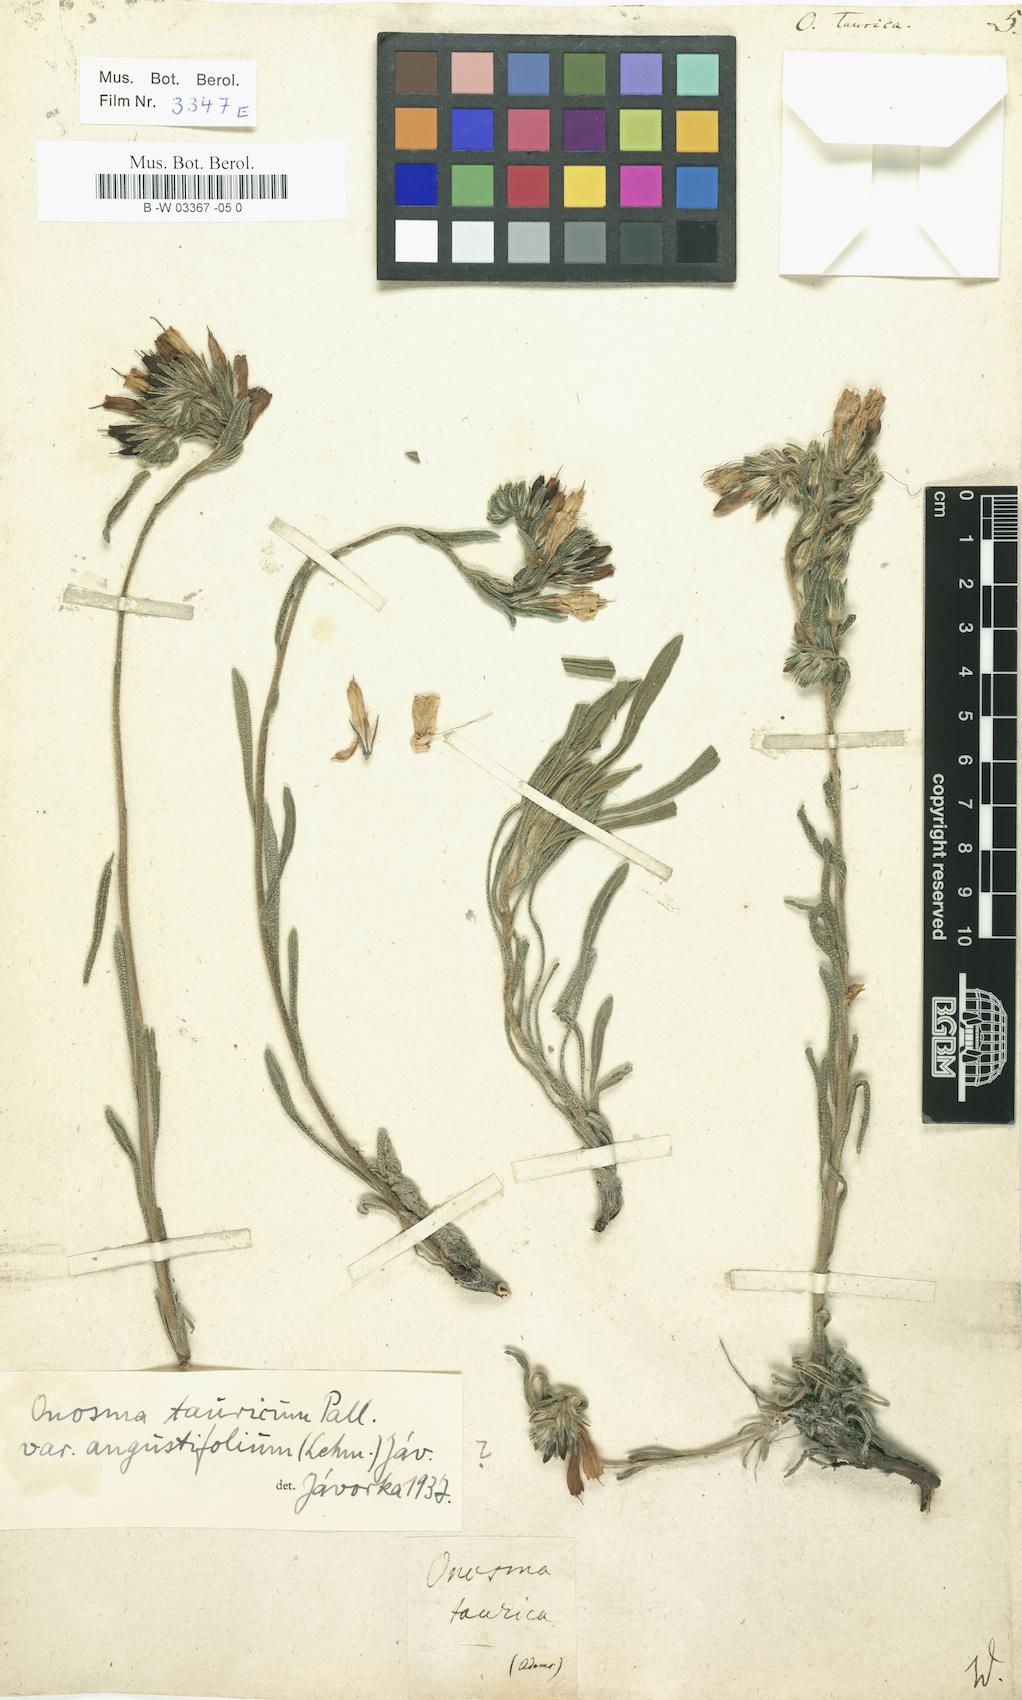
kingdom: Plantae
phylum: Tracheophyta
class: Magnoliopsida
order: Boraginales
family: Boraginaceae
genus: Onosma
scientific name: Onosma taurica
